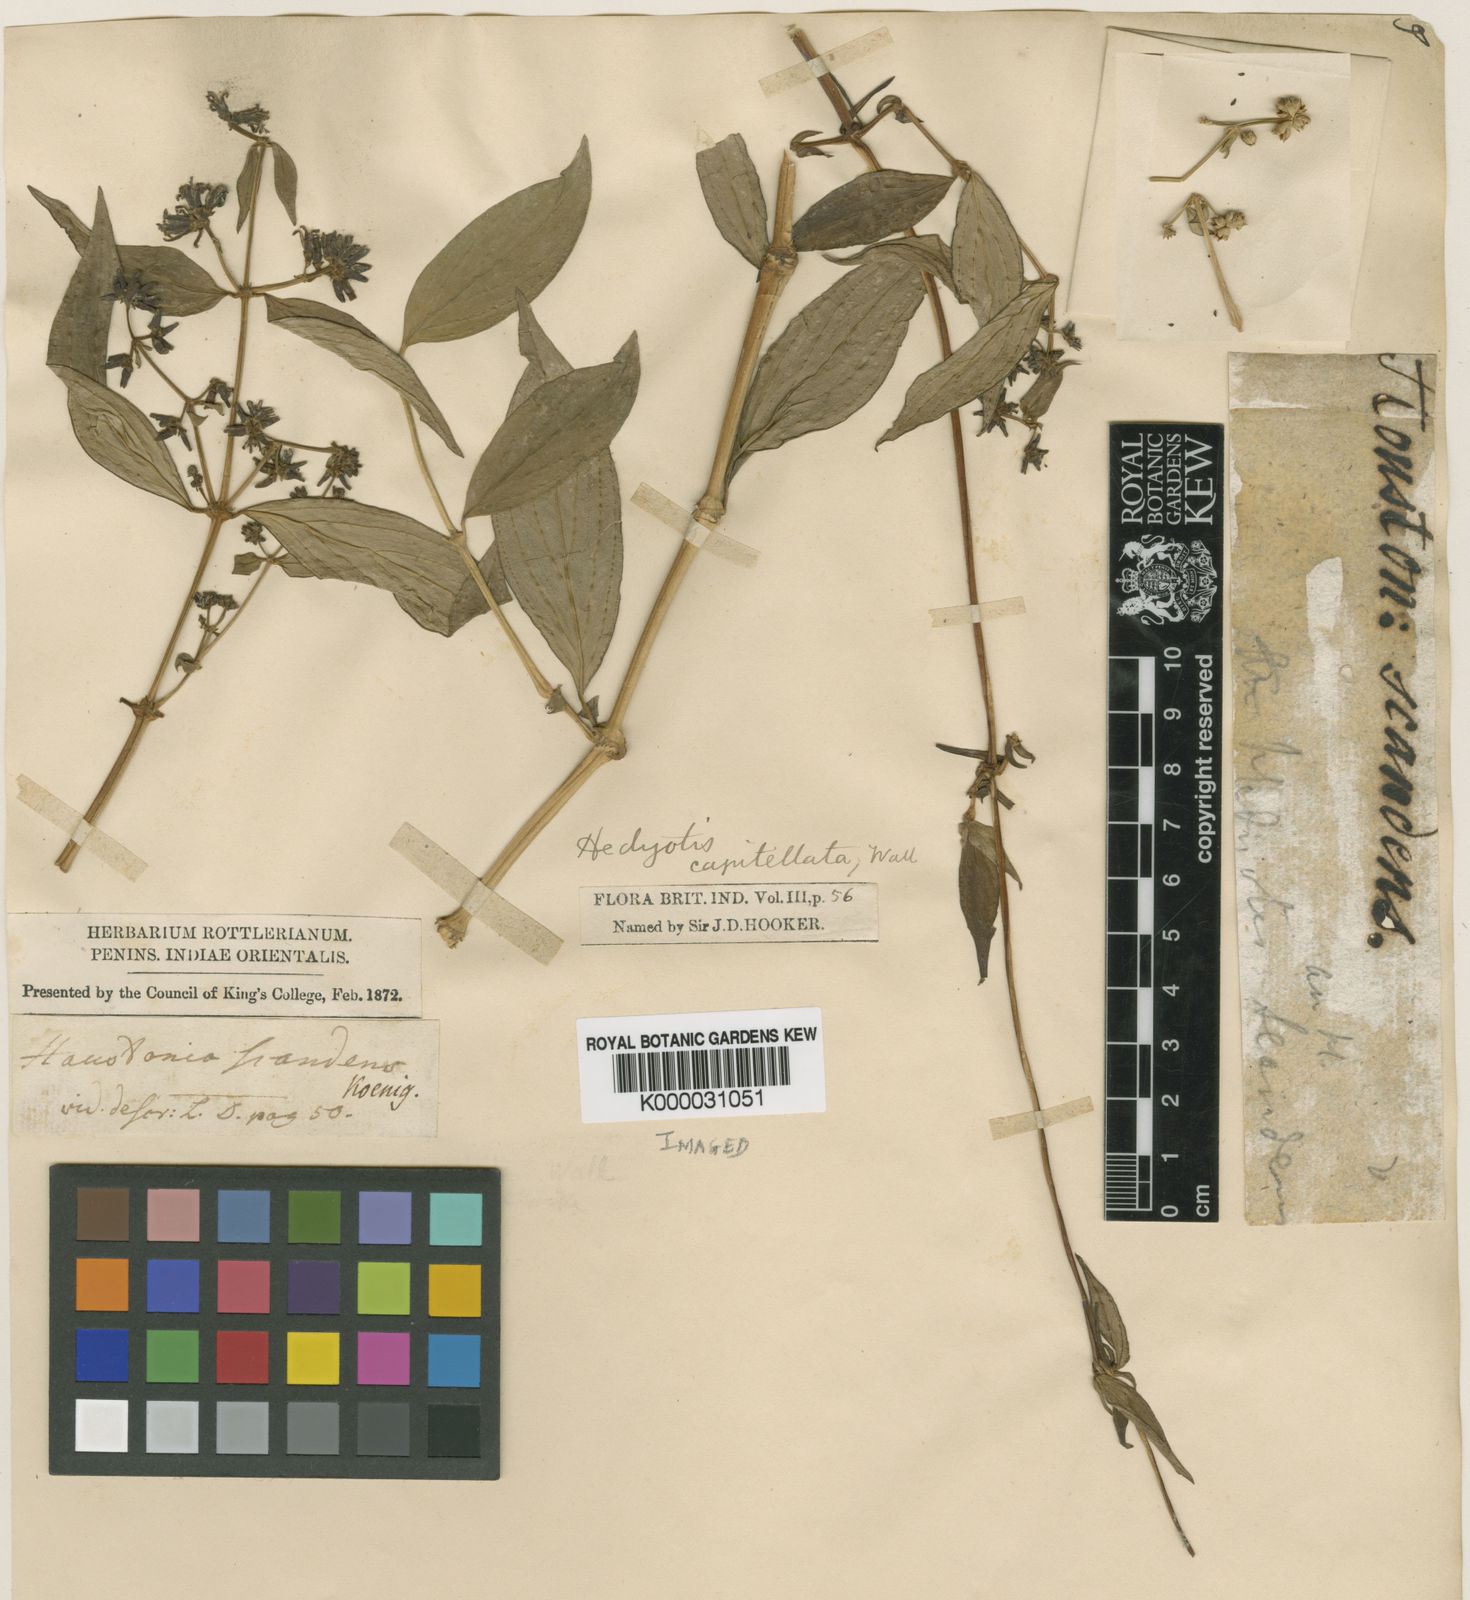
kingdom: Plantae
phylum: Tracheophyta
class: Magnoliopsida
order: Gentianales
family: Rubiaceae
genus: Hedyotis
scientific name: Hedyotis
